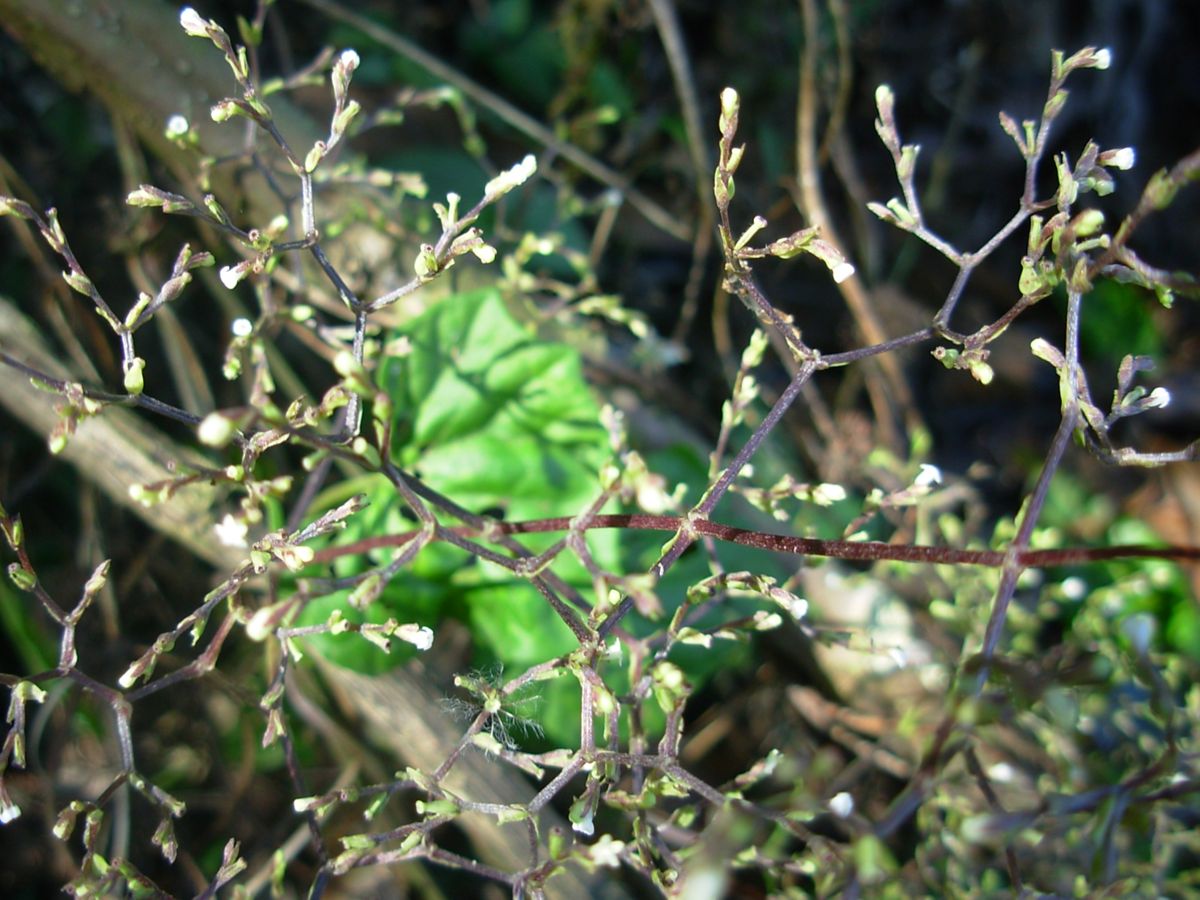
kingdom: Plantae
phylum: Tracheophyta
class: Magnoliopsida
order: Dipsacales
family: Caprifoliaceae
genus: Valeriana
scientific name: Valeriana candolleana
